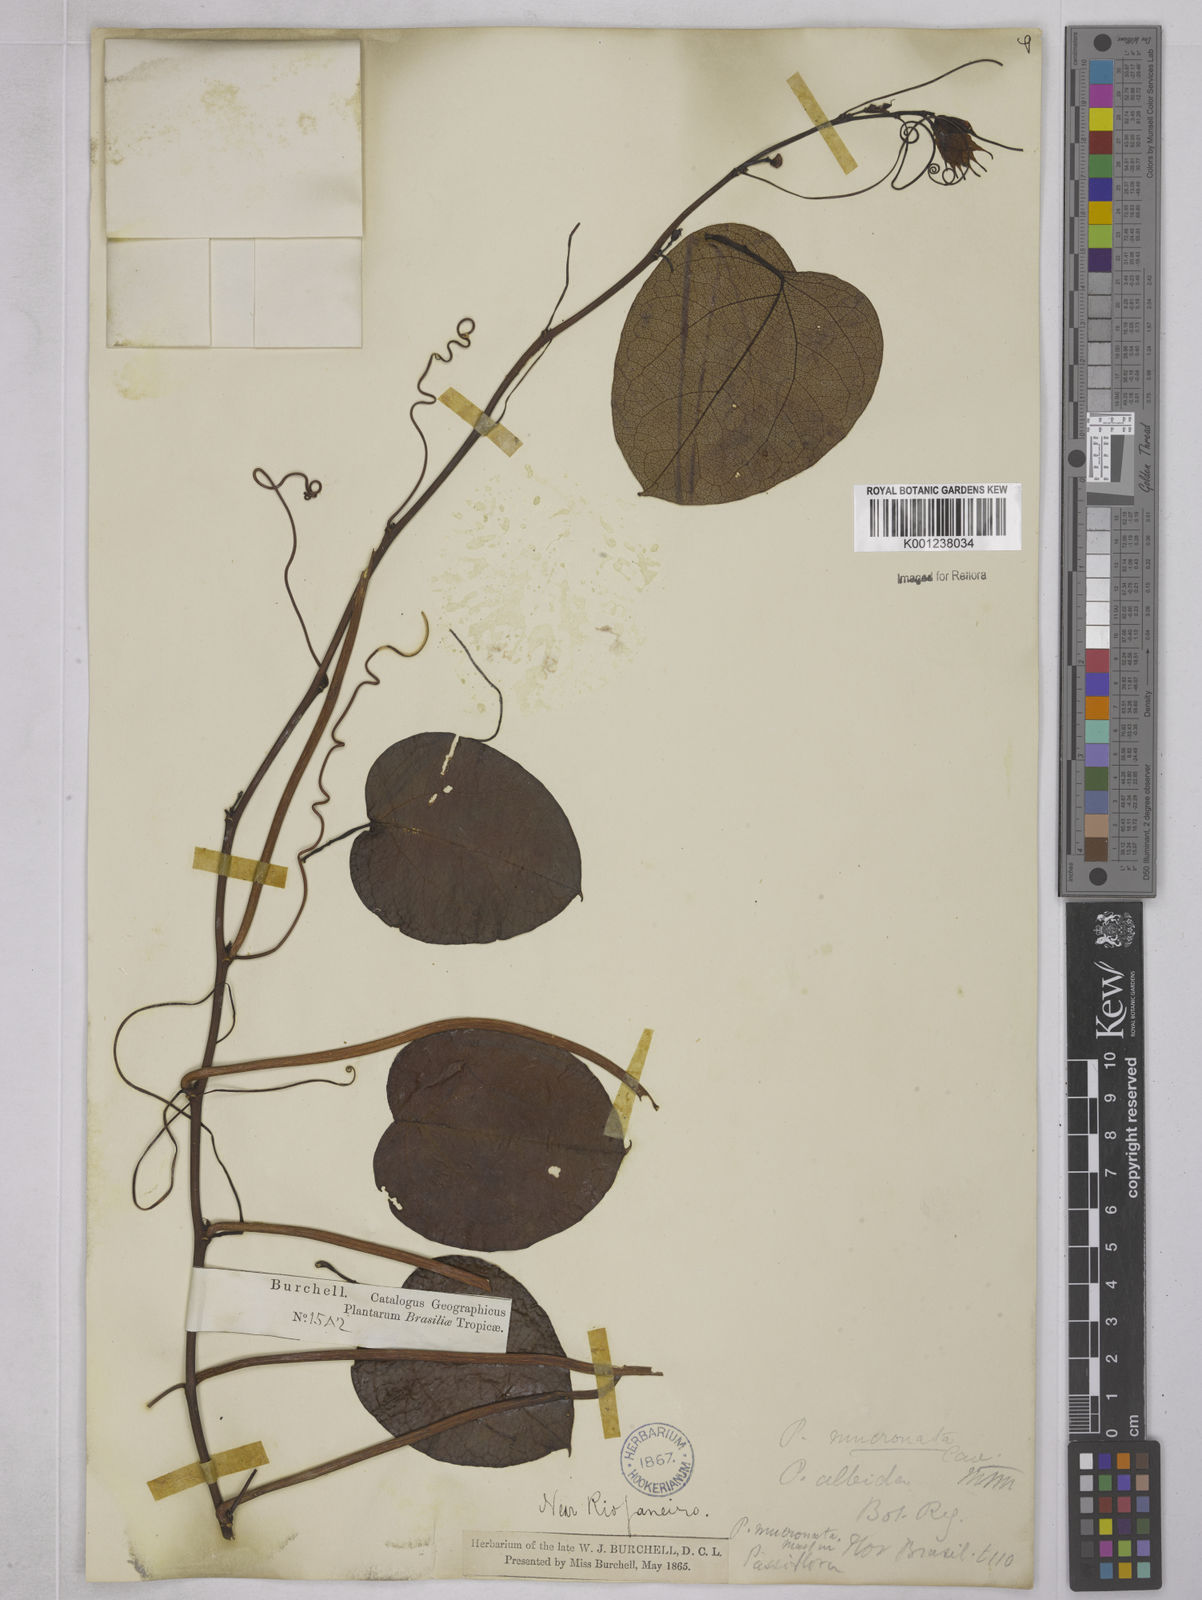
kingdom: Plantae
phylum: Tracheophyta
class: Magnoliopsida
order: Malpighiales
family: Passifloraceae
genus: Passiflora
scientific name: Passiflora mucronata
